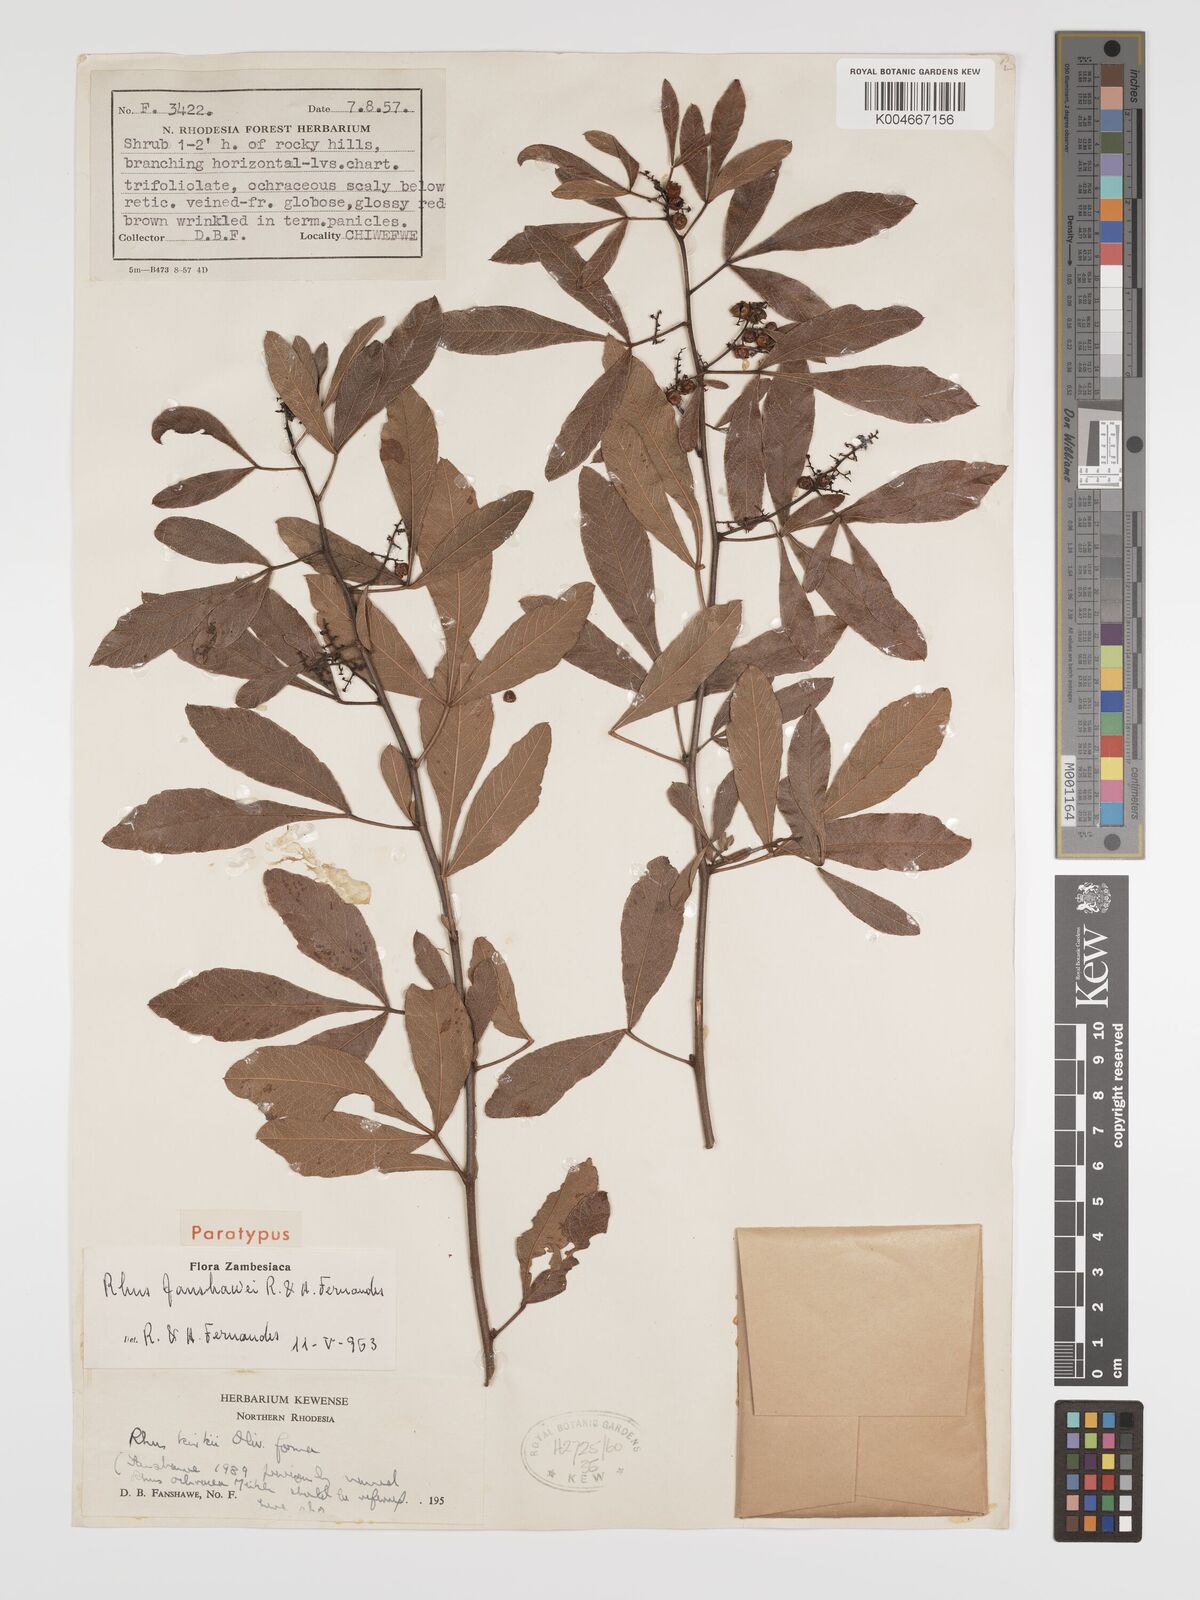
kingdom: Plantae
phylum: Tracheophyta
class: Magnoliopsida
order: Sapindales
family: Anacardiaceae
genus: Searsia
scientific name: Searsia magalismontana
